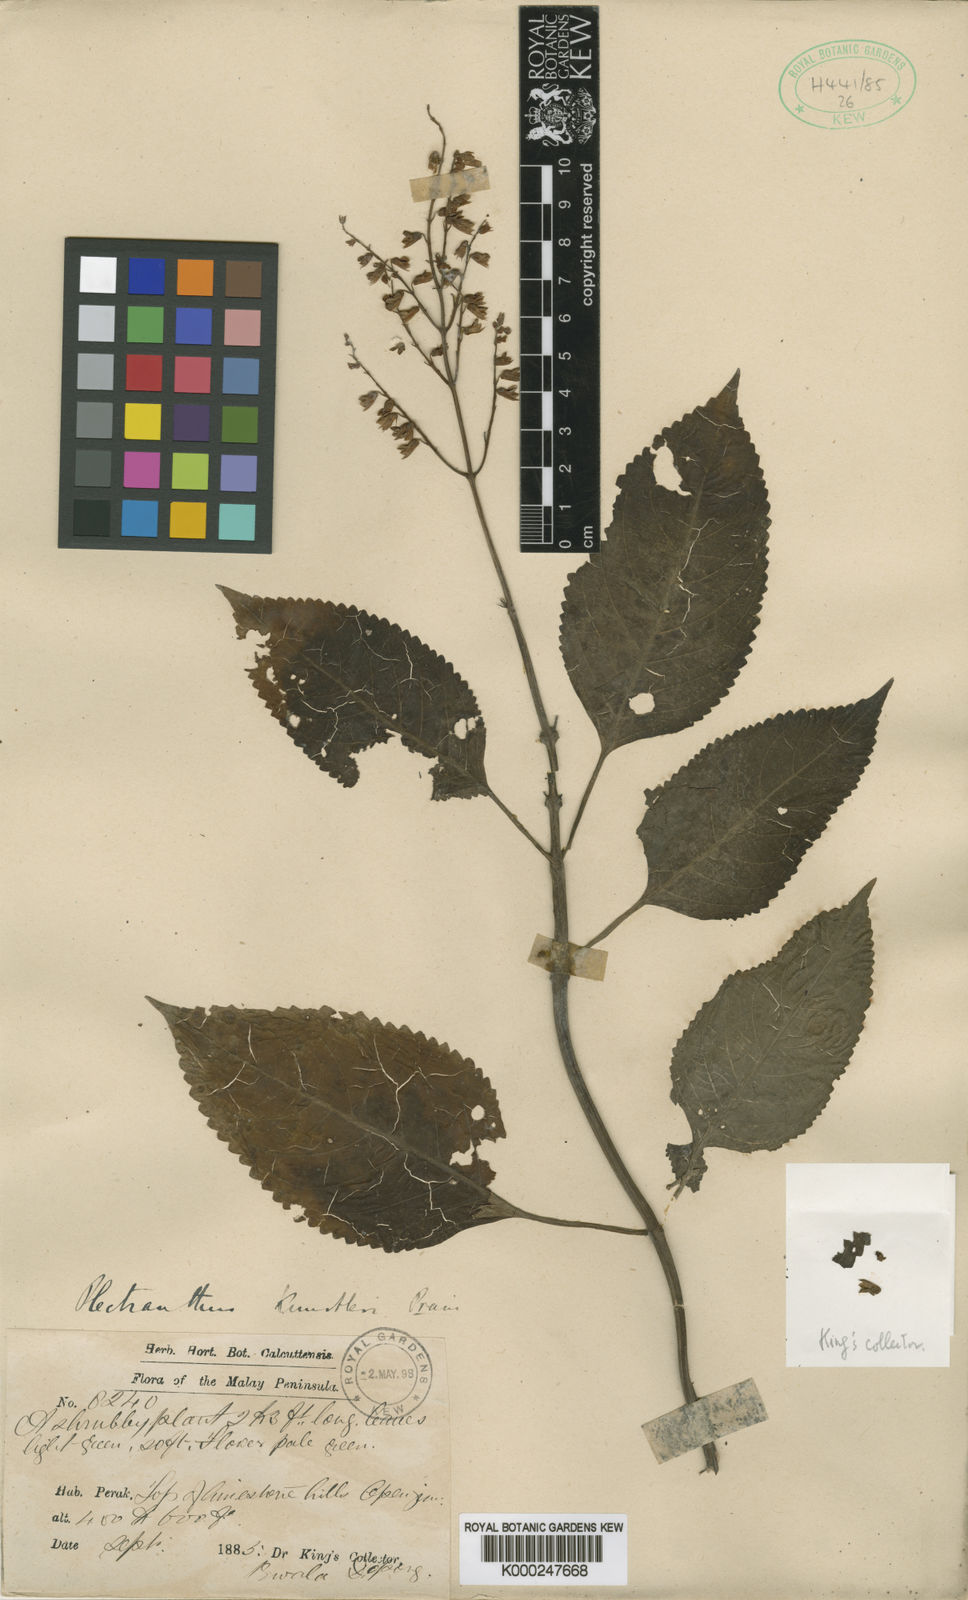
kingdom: Plantae
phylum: Tracheophyta
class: Magnoliopsida
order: Lamiales
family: Lamiaceae
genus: Coleus
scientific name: Coleus kunstleri
